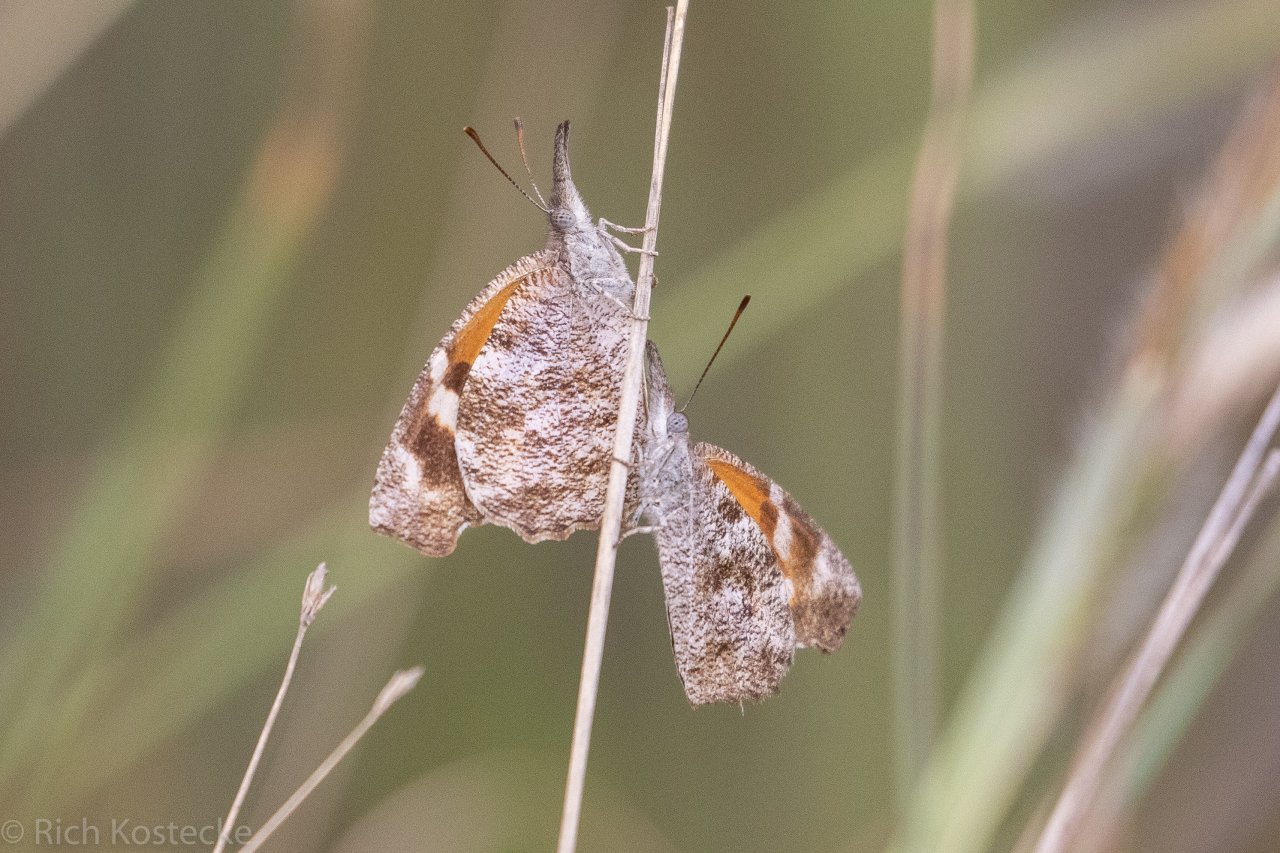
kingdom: Animalia
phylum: Arthropoda
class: Insecta
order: Lepidoptera
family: Nymphalidae
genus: Libytheana
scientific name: Libytheana carinenta
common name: American Snout
